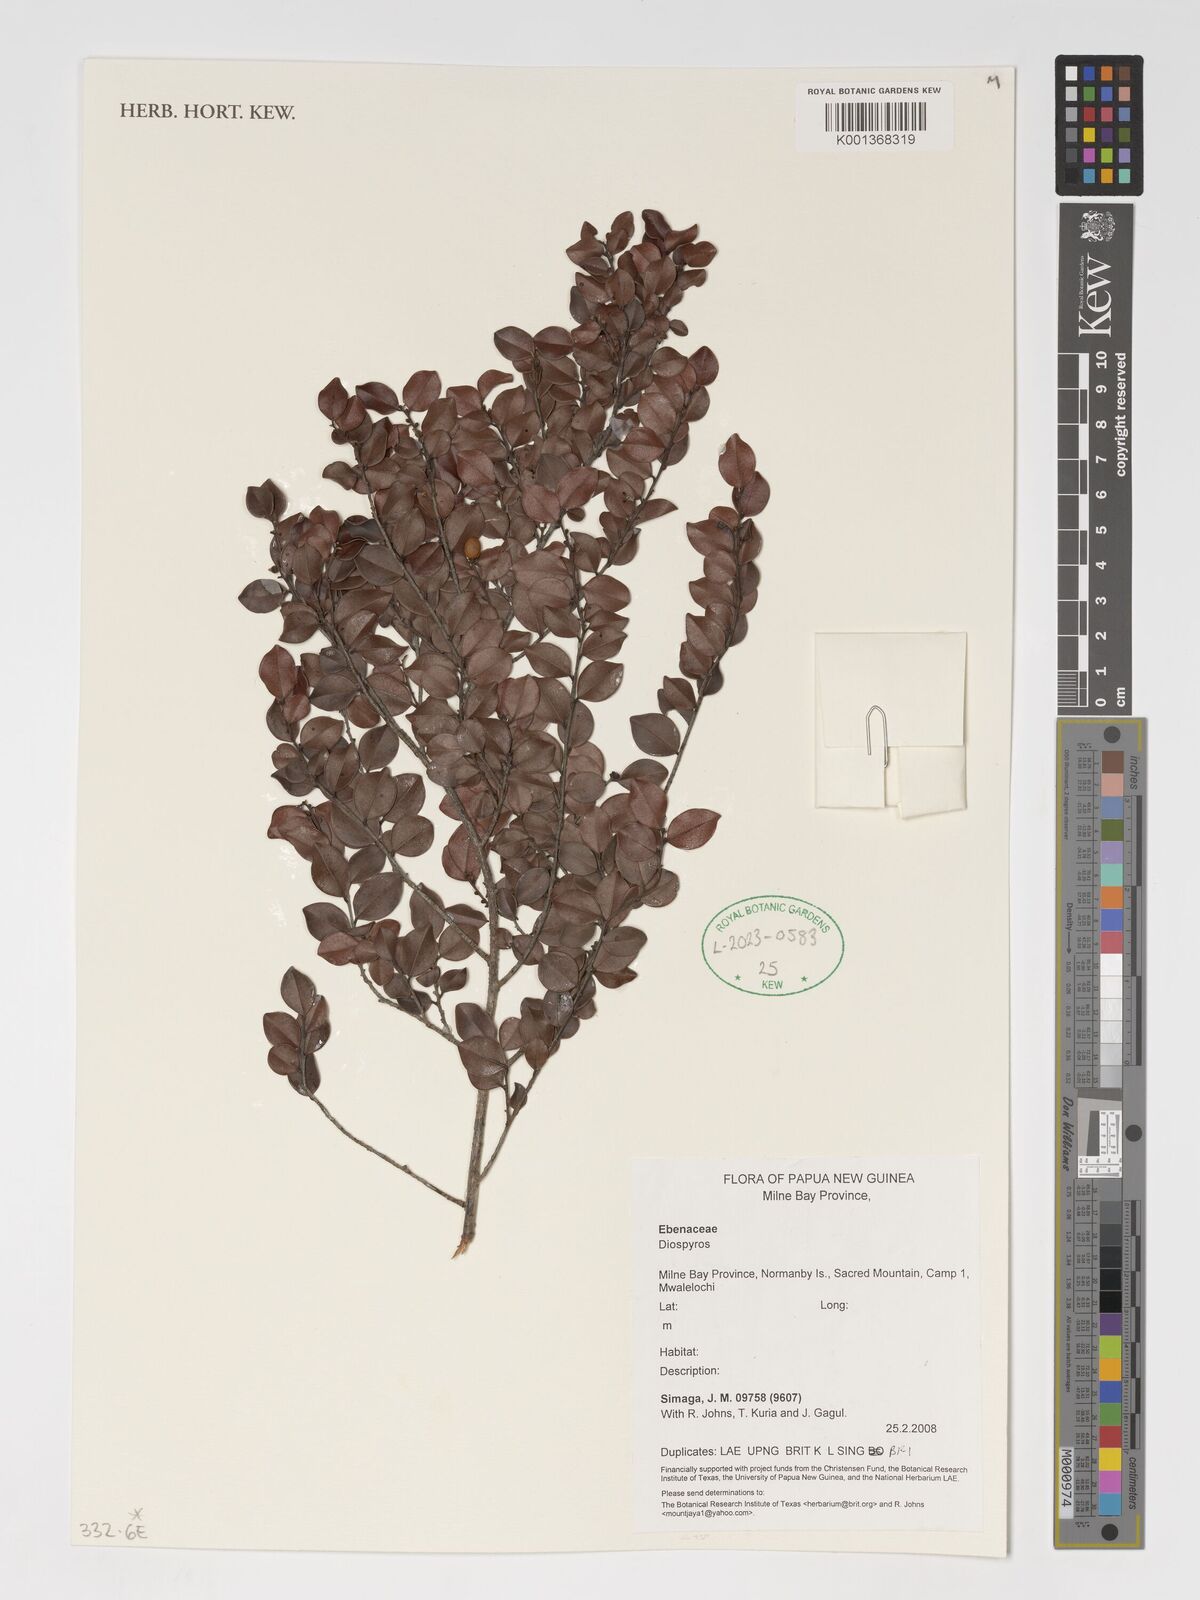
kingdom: Plantae
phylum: Tracheophyta
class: Magnoliopsida
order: Ericales
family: Ebenaceae
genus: Diospyros
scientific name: Diospyros
